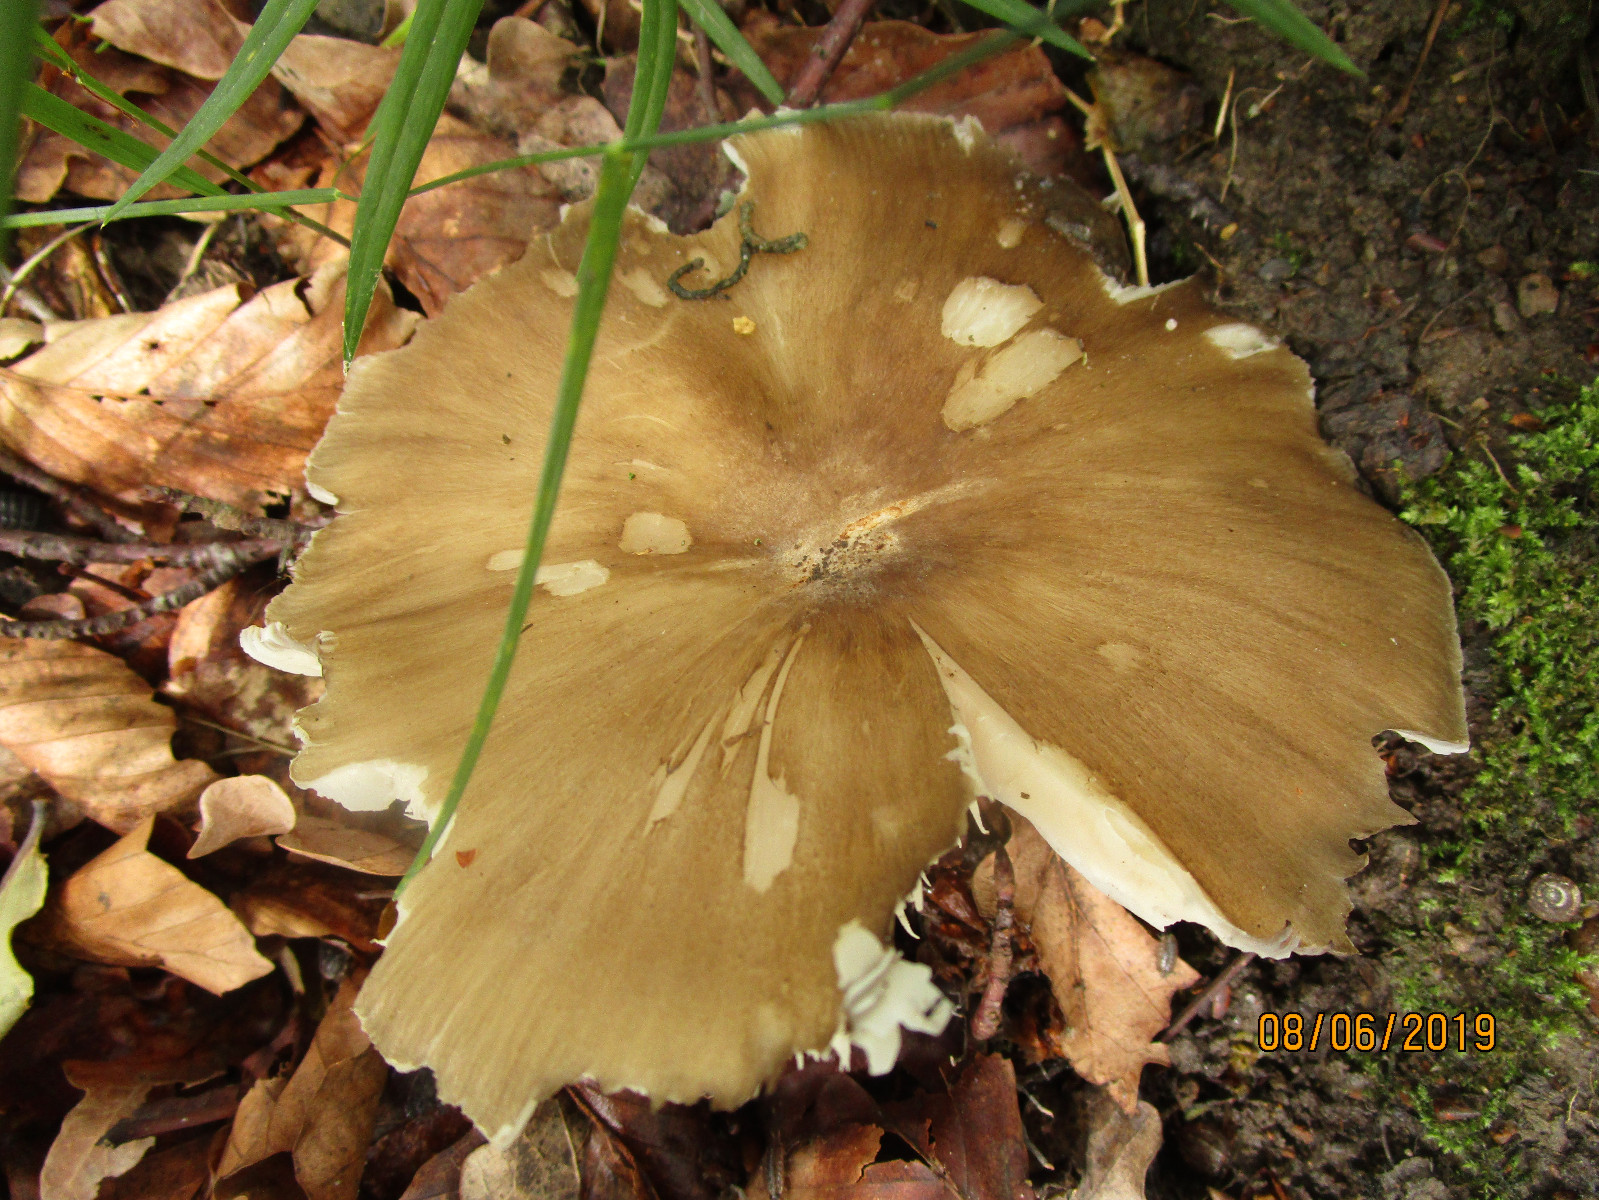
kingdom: Fungi
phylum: Basidiomycota
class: Agaricomycetes
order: Agaricales
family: Tricholomataceae
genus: Megacollybia
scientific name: Megacollybia platyphylla
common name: bredbladet væbnerhat
